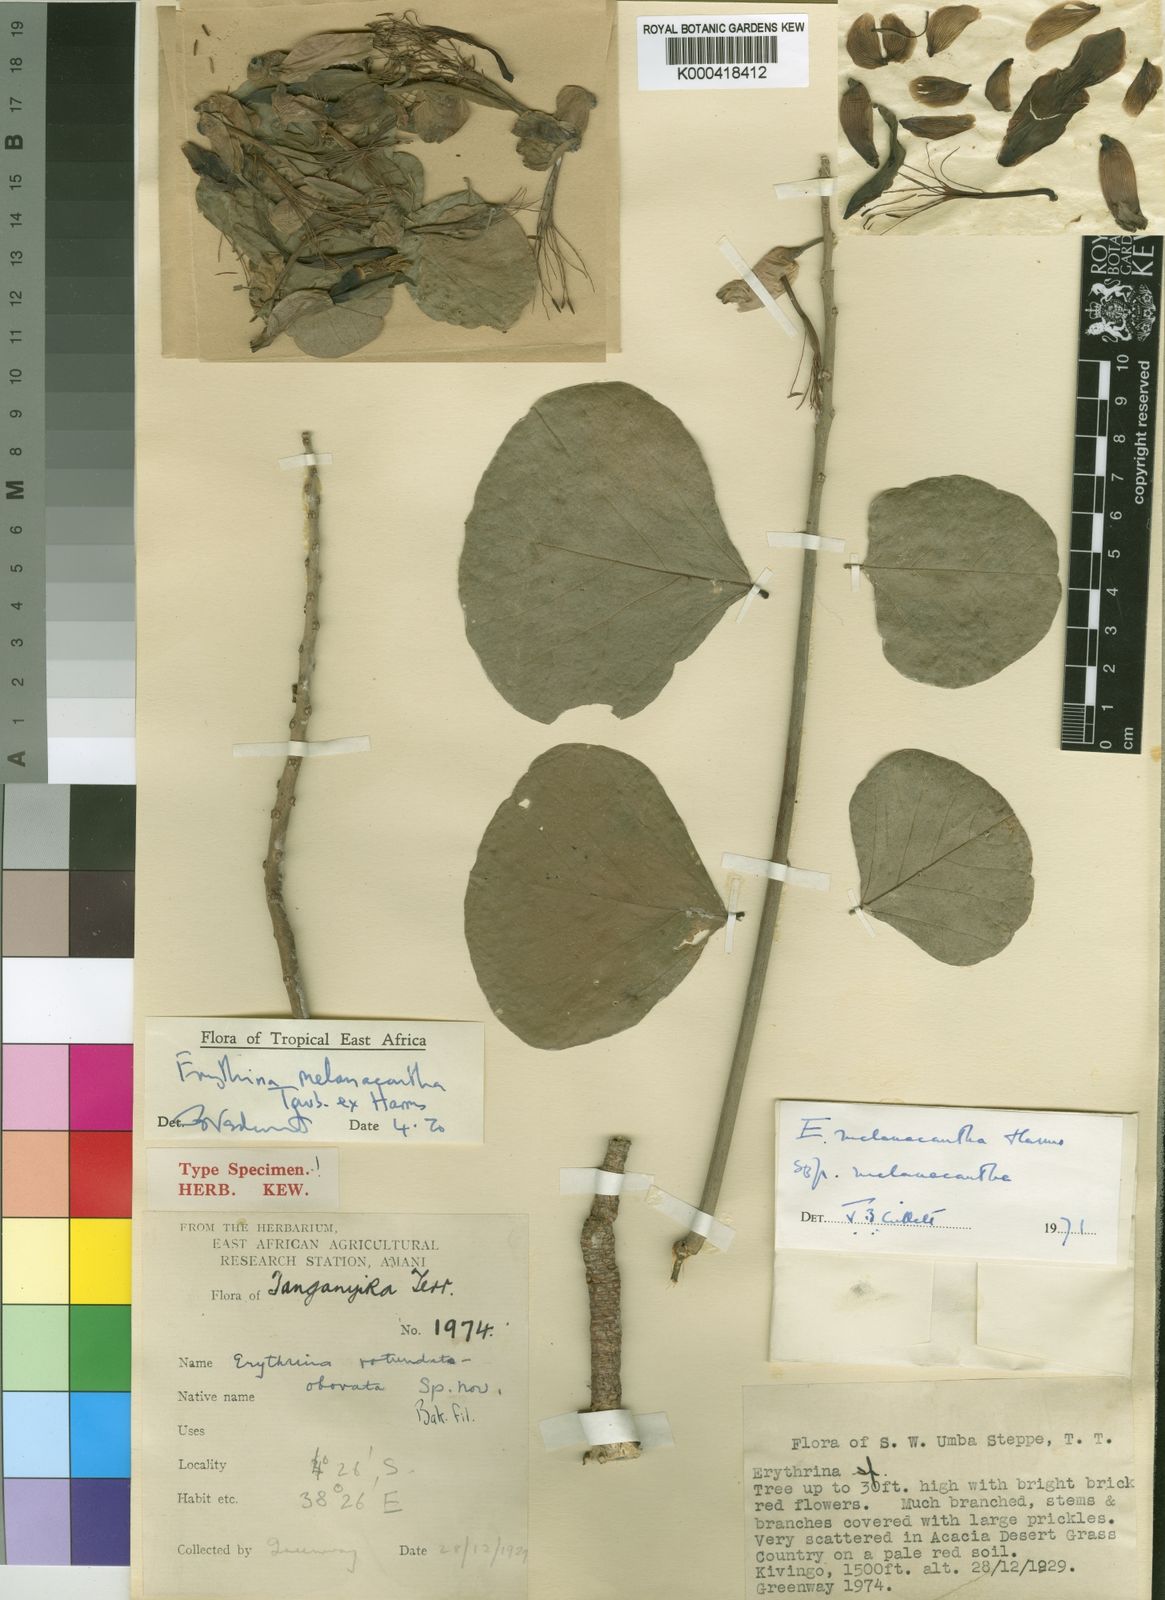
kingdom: Plantae
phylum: Tracheophyta
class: Magnoliopsida
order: Fabales
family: Fabaceae
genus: Erythrina
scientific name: Erythrina
